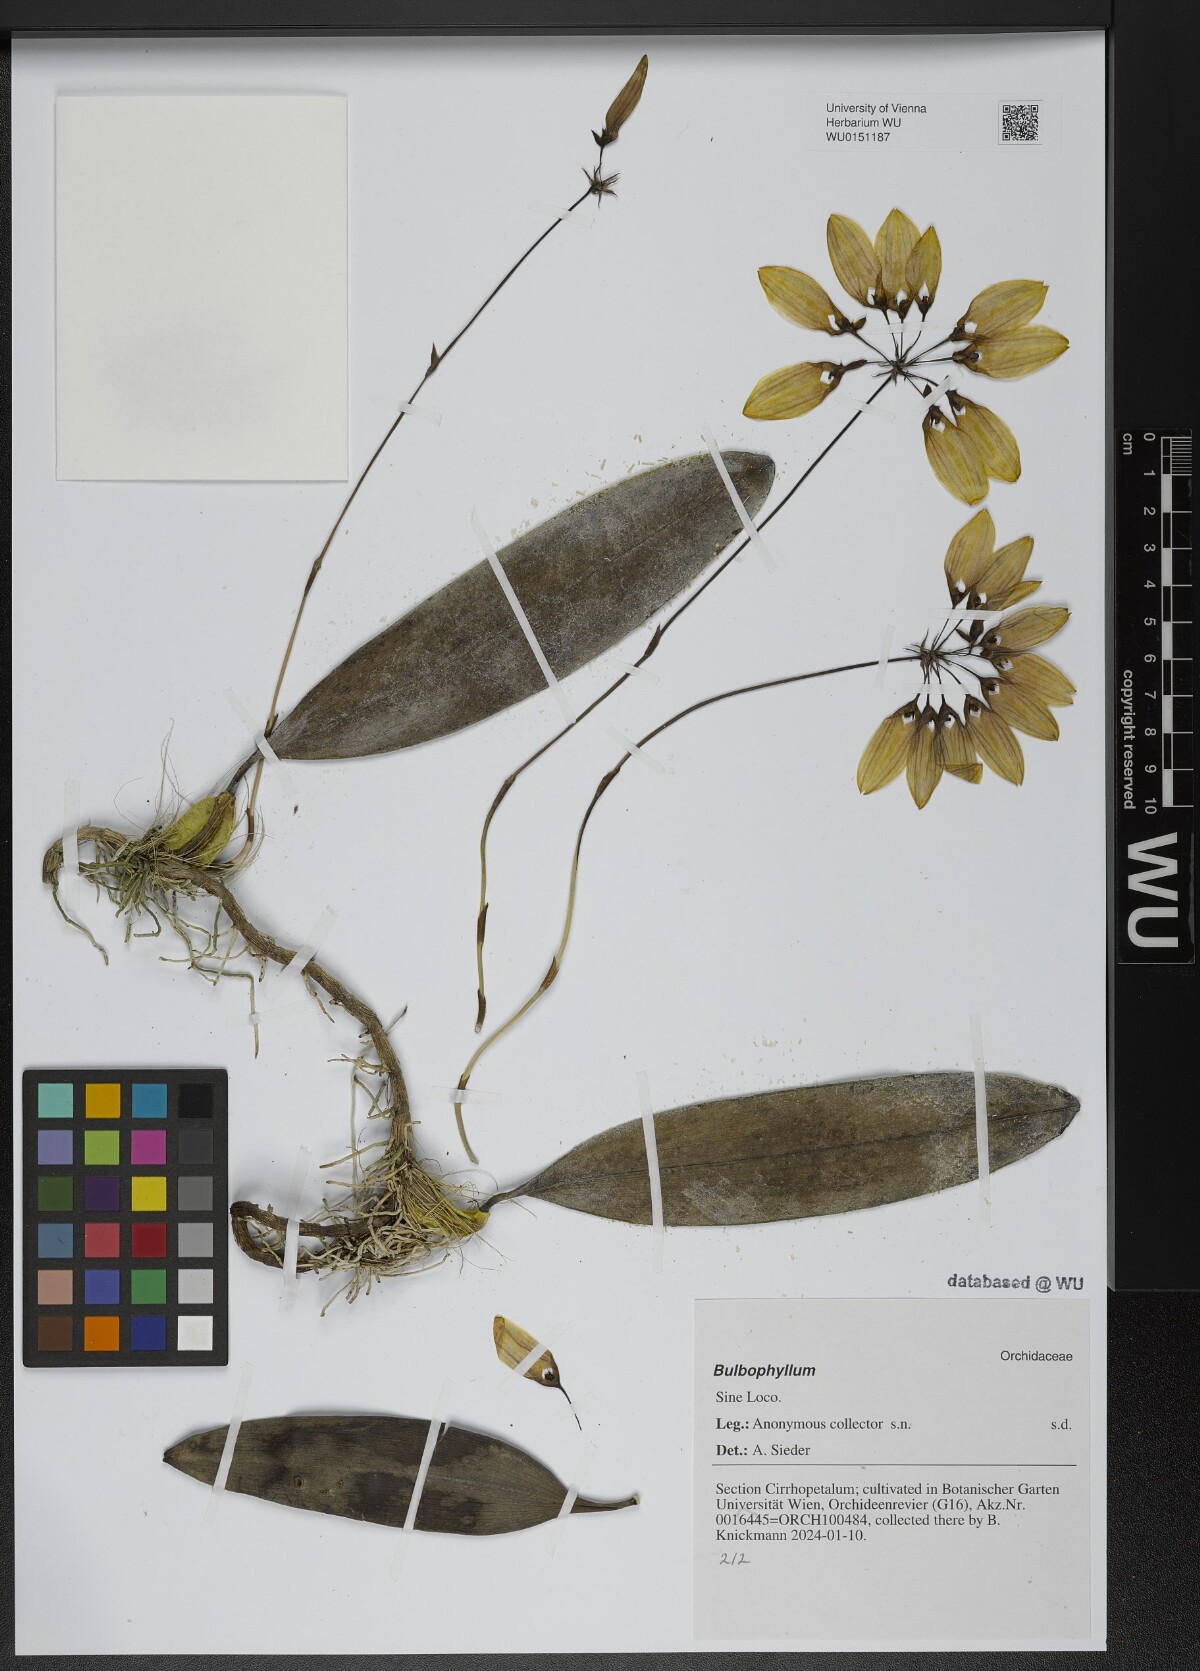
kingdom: Plantae
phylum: Tracheophyta
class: Liliopsida
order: Asparagales
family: Orchidaceae
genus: Bulbophyllum
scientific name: Bulbophyllum
